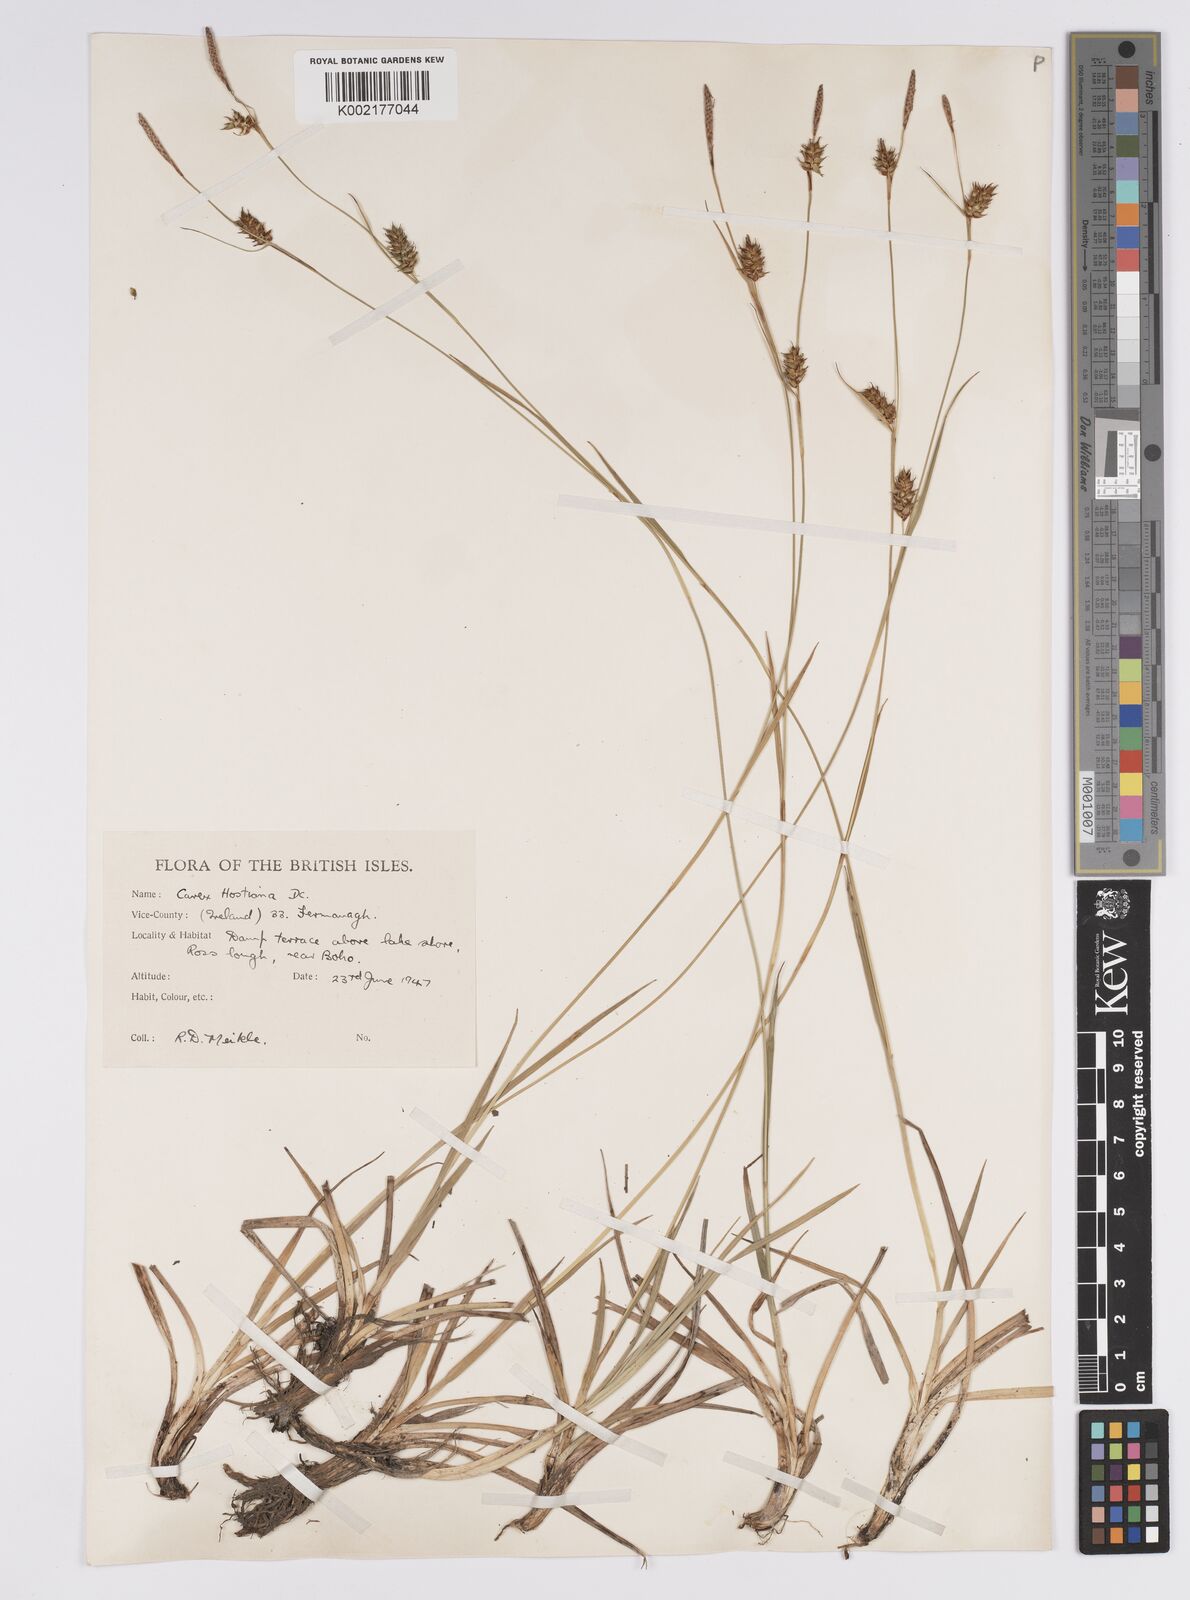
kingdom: Plantae
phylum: Tracheophyta
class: Liliopsida
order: Poales
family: Cyperaceae
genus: Carex
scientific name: Carex hostiana
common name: Tawny sedge
